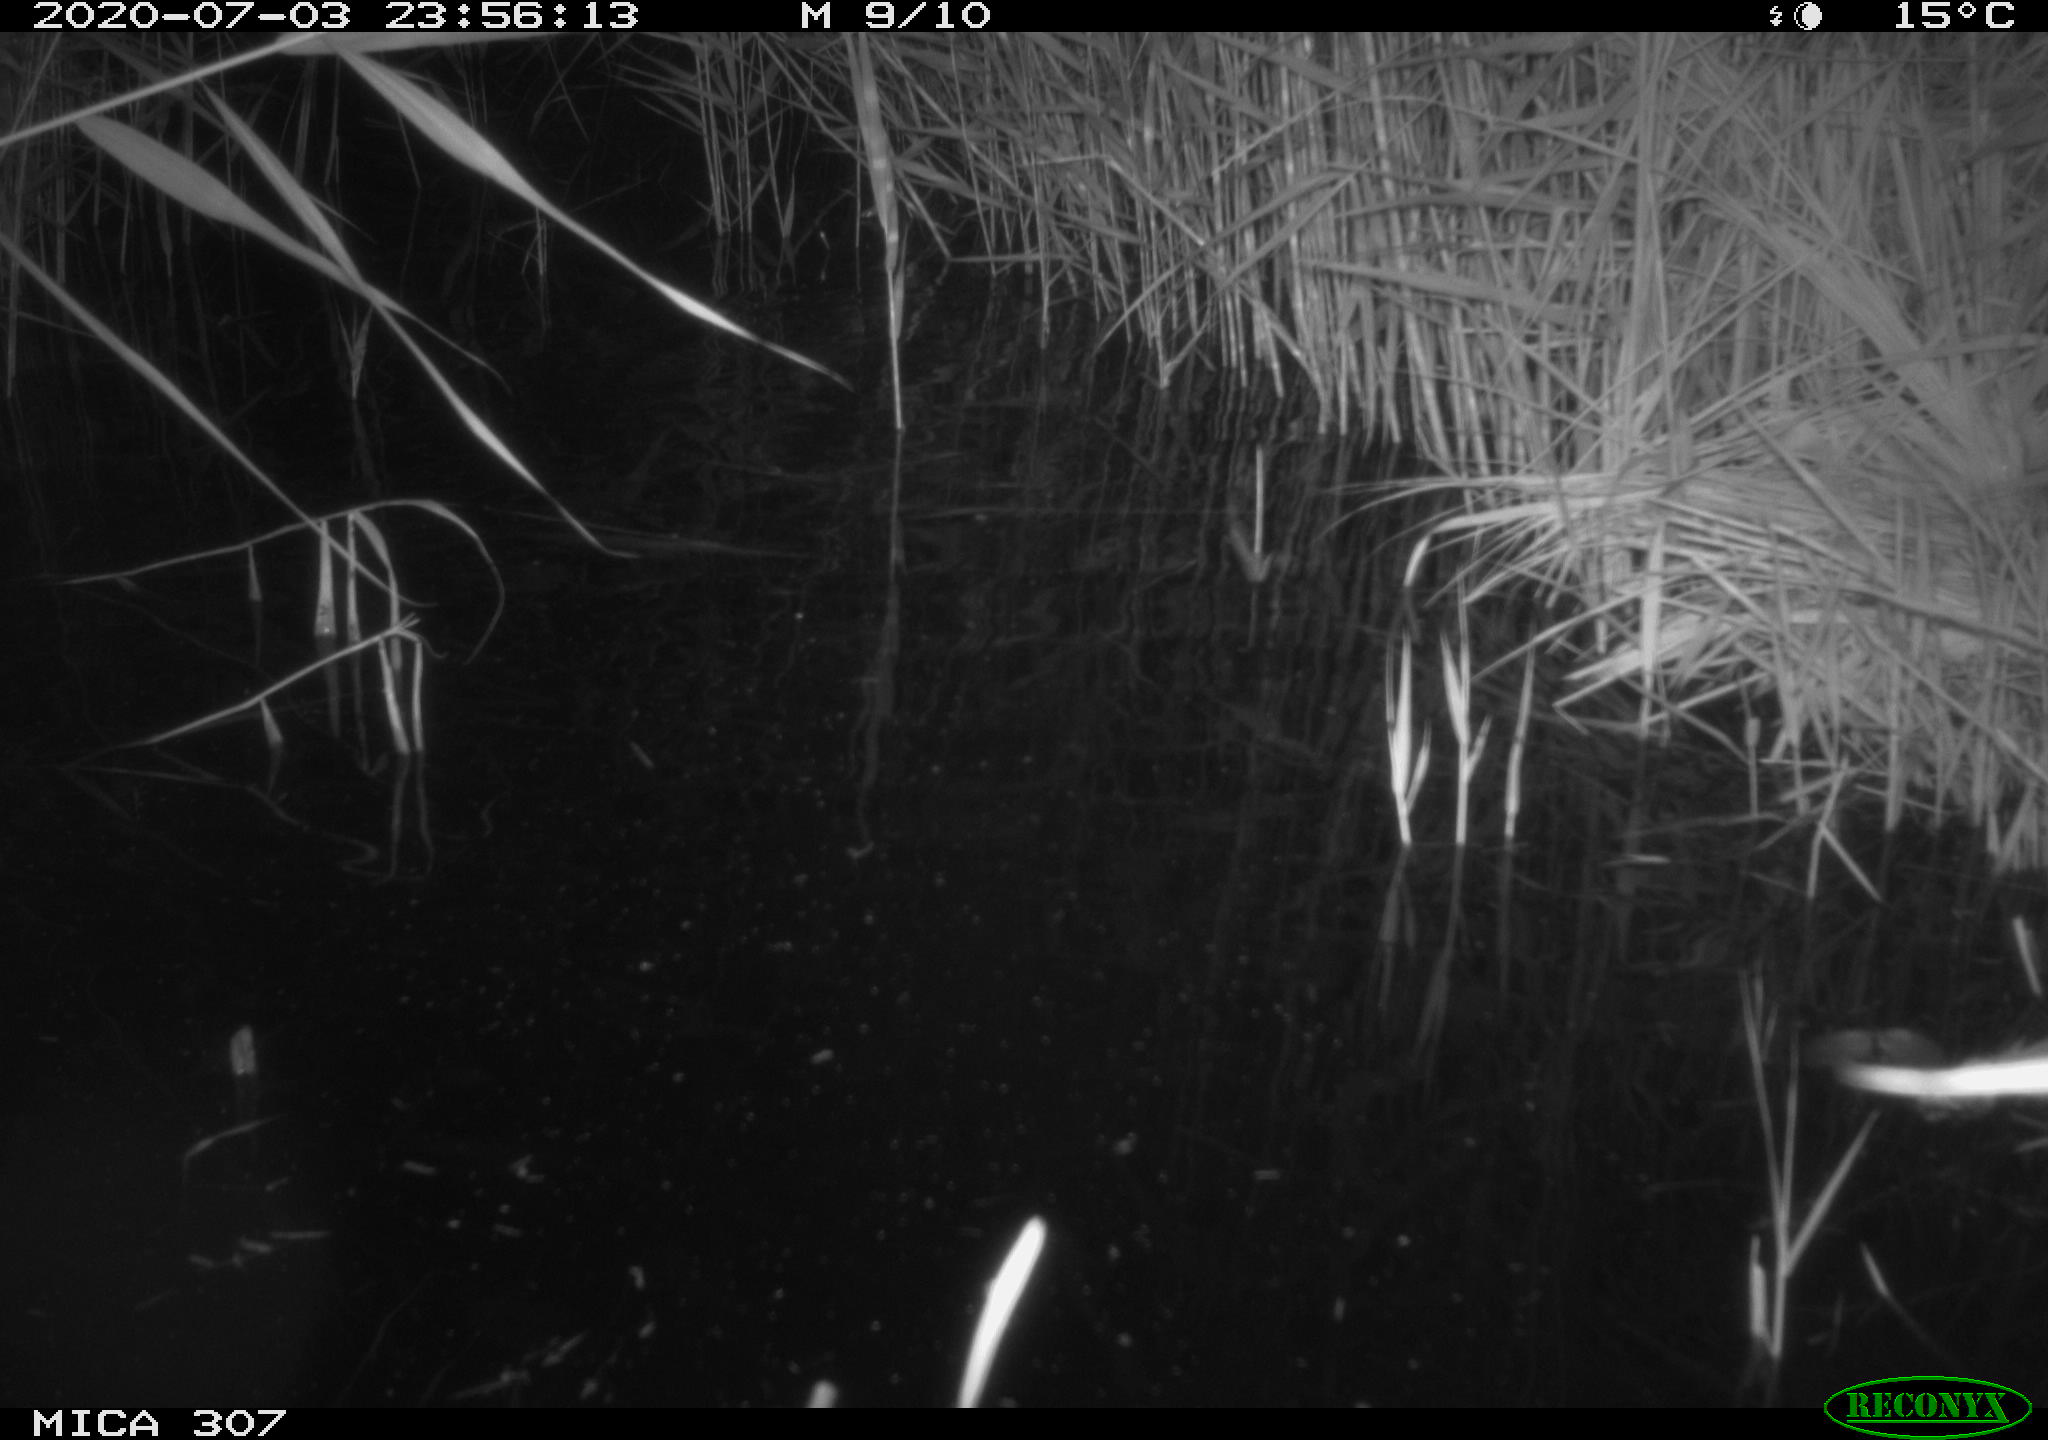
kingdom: Animalia
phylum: Chordata
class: Mammalia
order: Rodentia
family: Muridae
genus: Rattus
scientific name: Rattus norvegicus
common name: Brown rat
